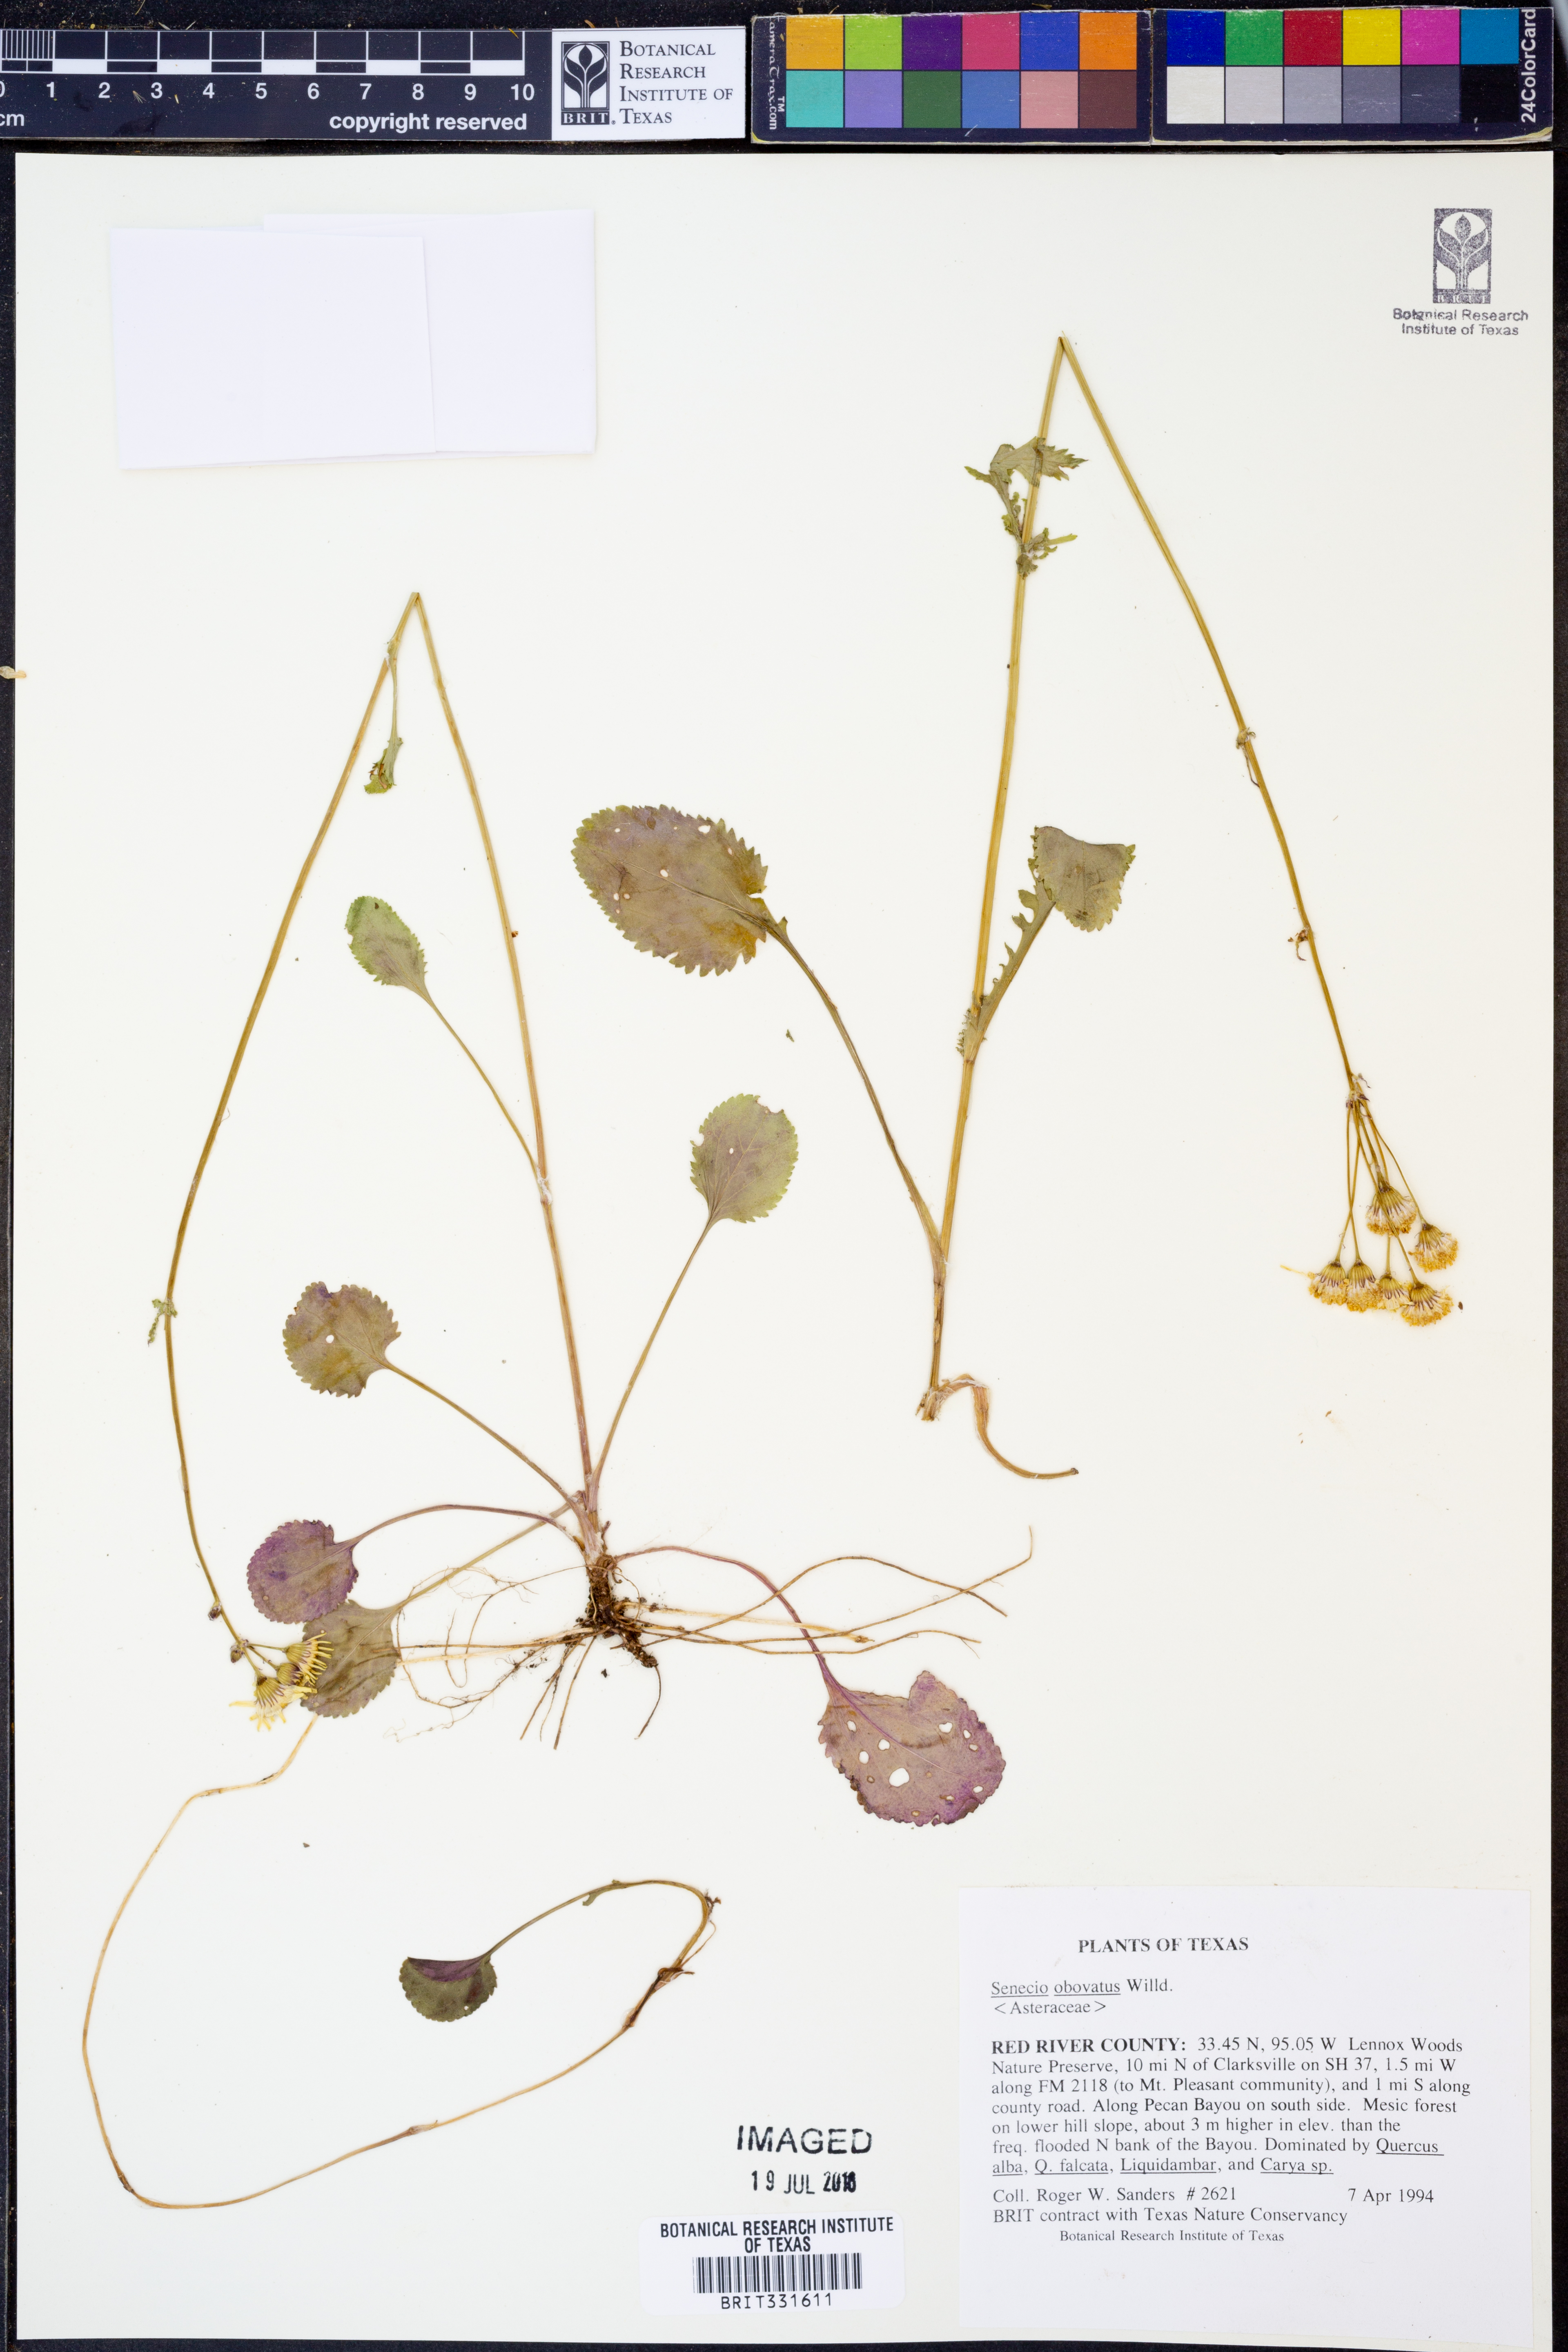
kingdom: Plantae
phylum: Tracheophyta
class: Magnoliopsida
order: Asterales
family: Asteraceae
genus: Senecio
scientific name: Senecio provincialis
